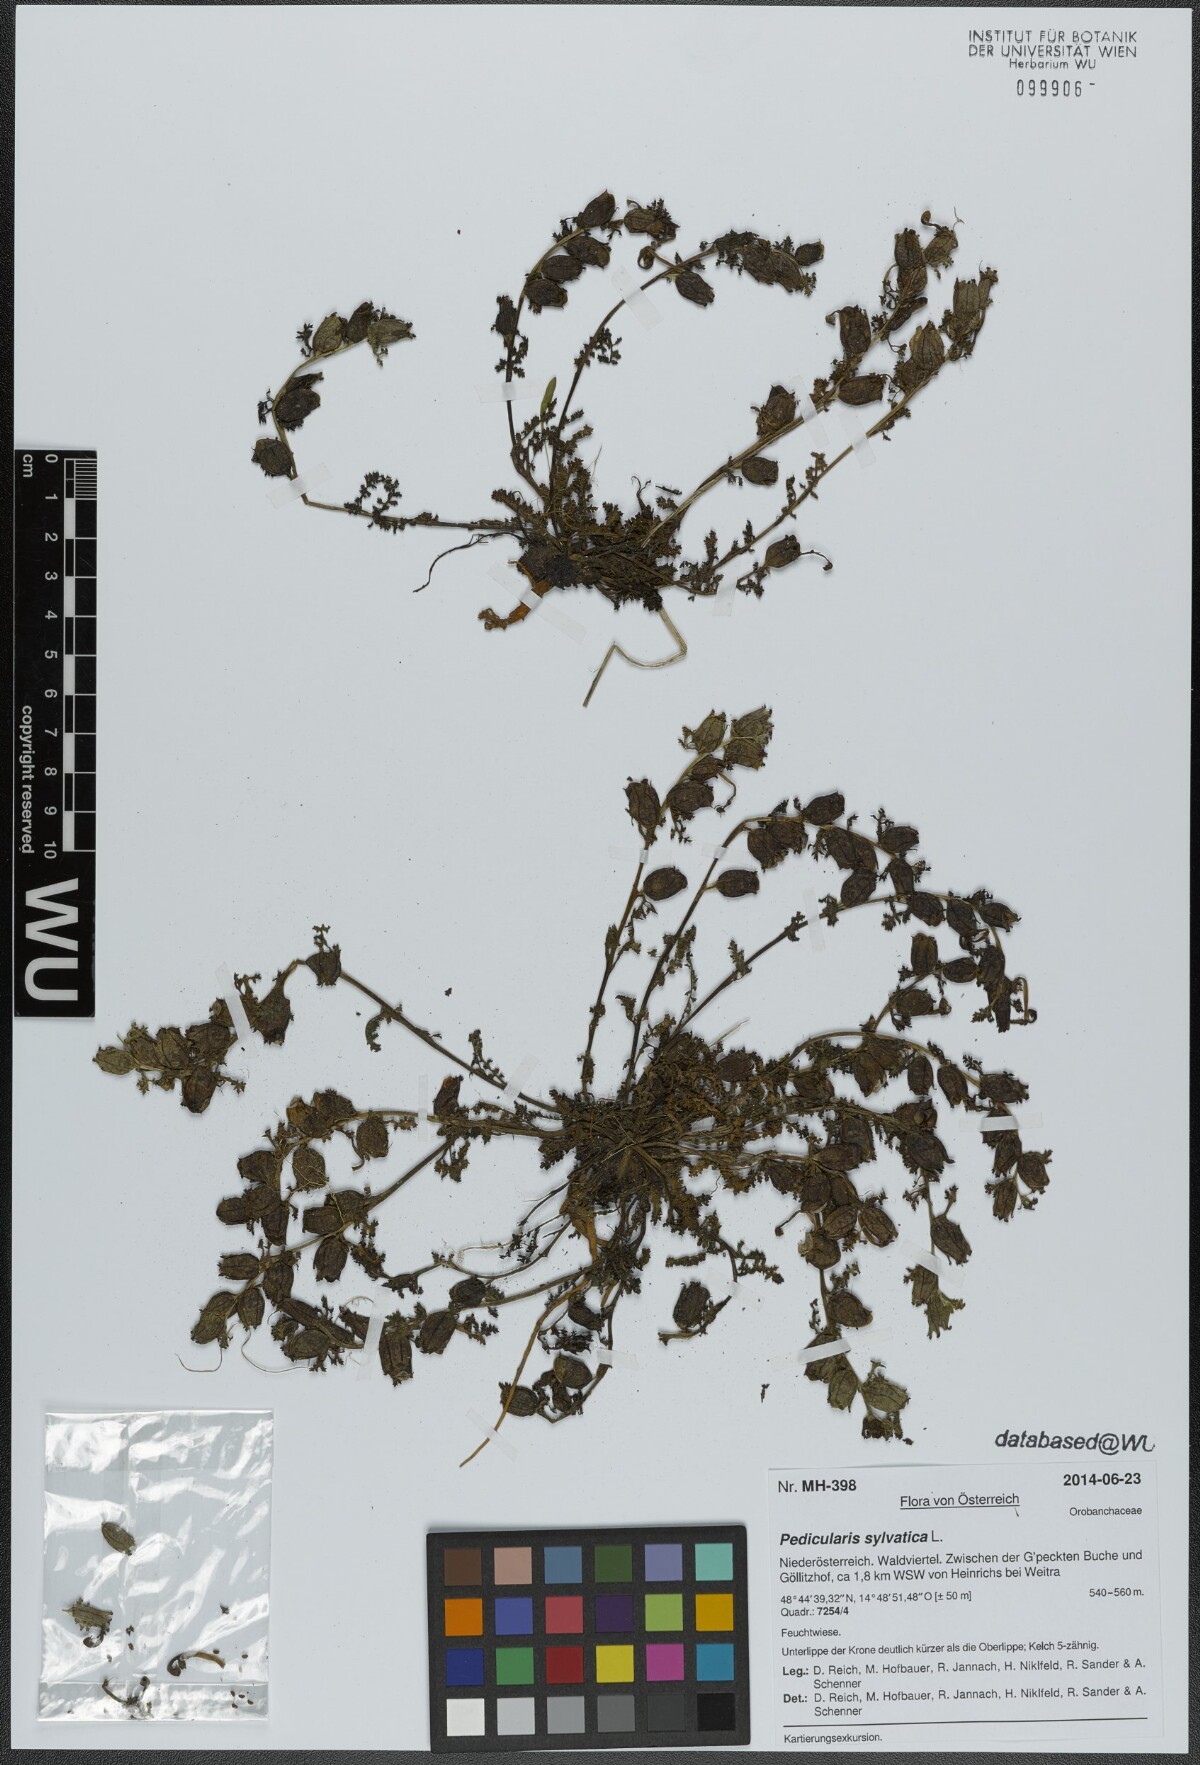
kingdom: Plantae
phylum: Tracheophyta
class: Magnoliopsida
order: Lamiales
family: Orobanchaceae
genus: Pedicularis
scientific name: Pedicularis sylvatica
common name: Lousewort
